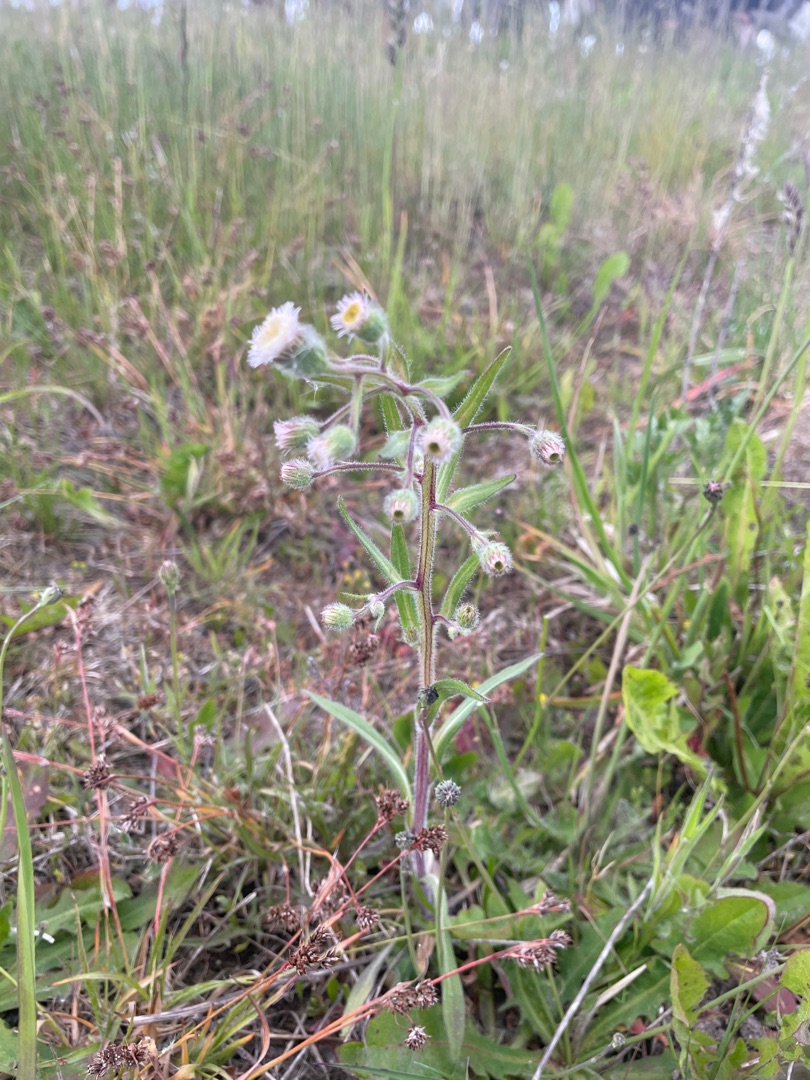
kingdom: Plantae
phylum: Tracheophyta
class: Magnoliopsida
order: Asterales
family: Asteraceae
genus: Erigeron
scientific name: Erigeron acris
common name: Bitter bakkestjerne
